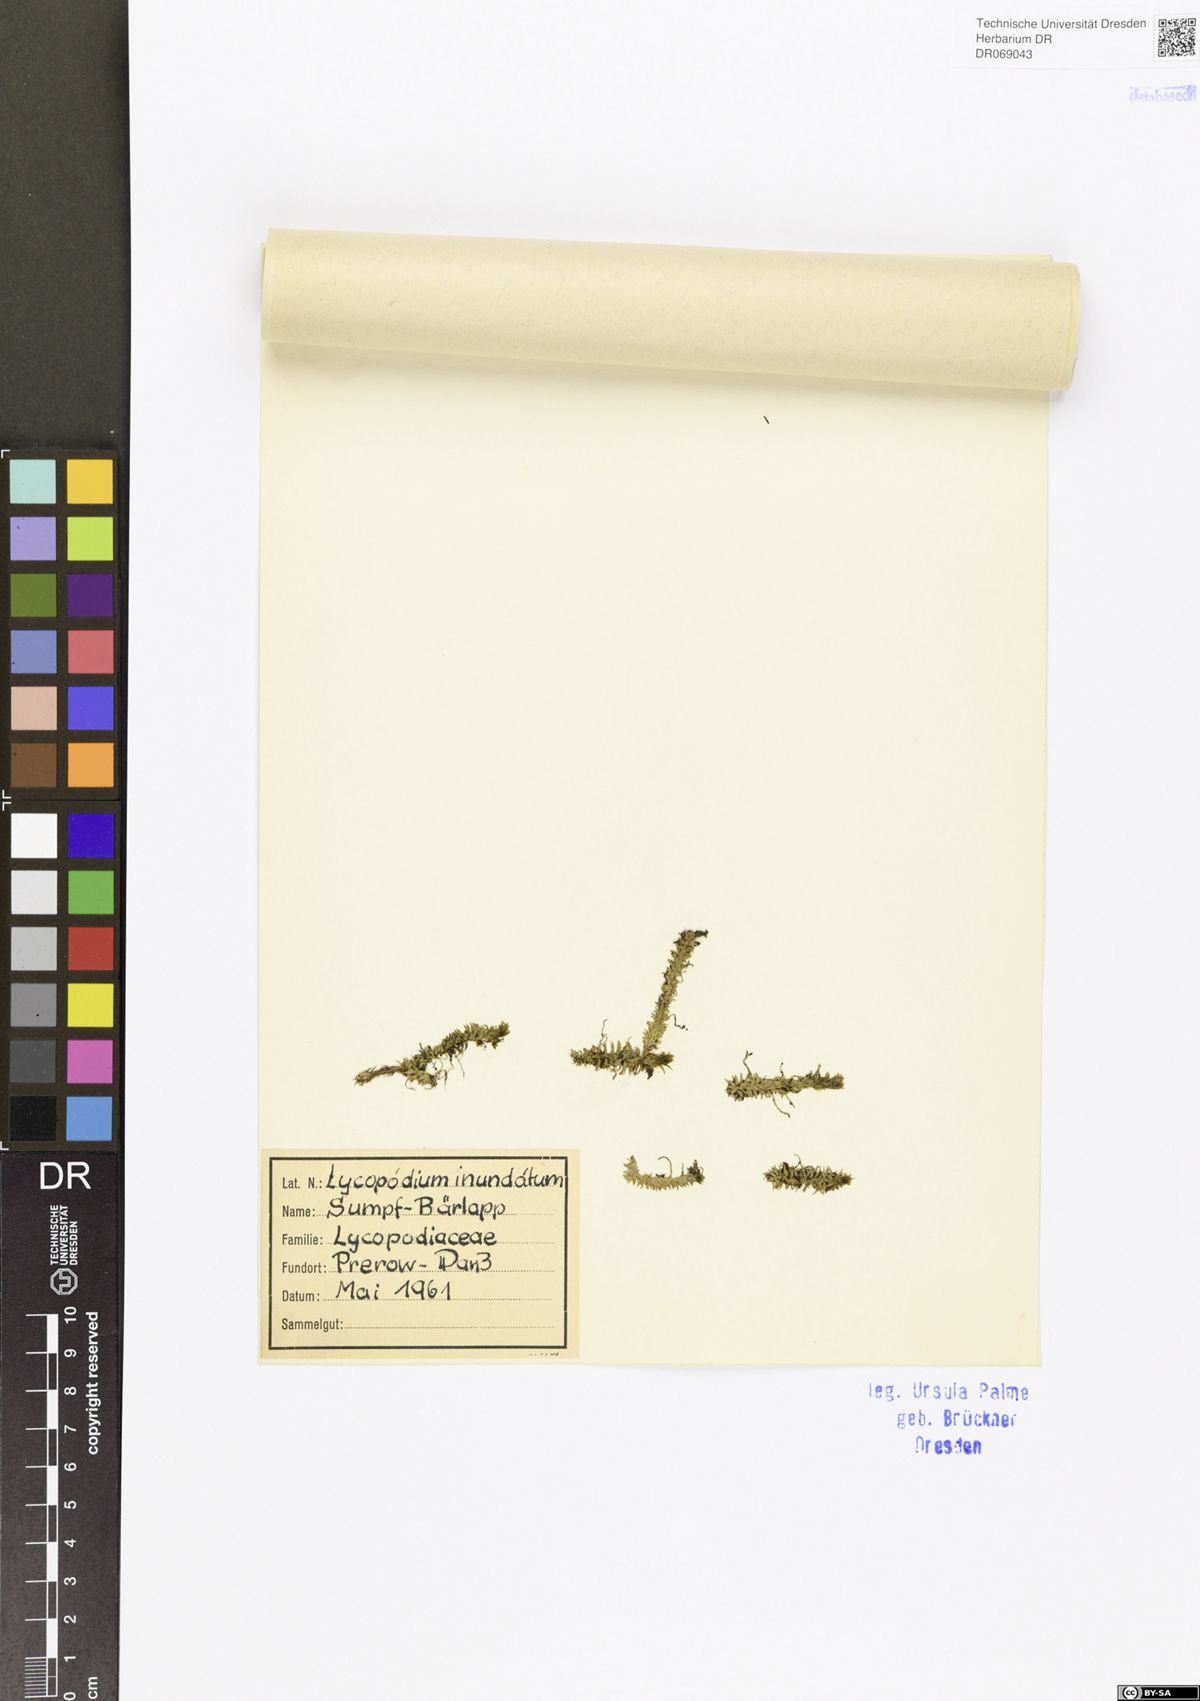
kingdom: Plantae
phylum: Tracheophyta
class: Lycopodiopsida
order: Lycopodiales
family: Lycopodiaceae
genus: Lycopodiella
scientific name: Lycopodiella appressa
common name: Appressed bog clubmoss
